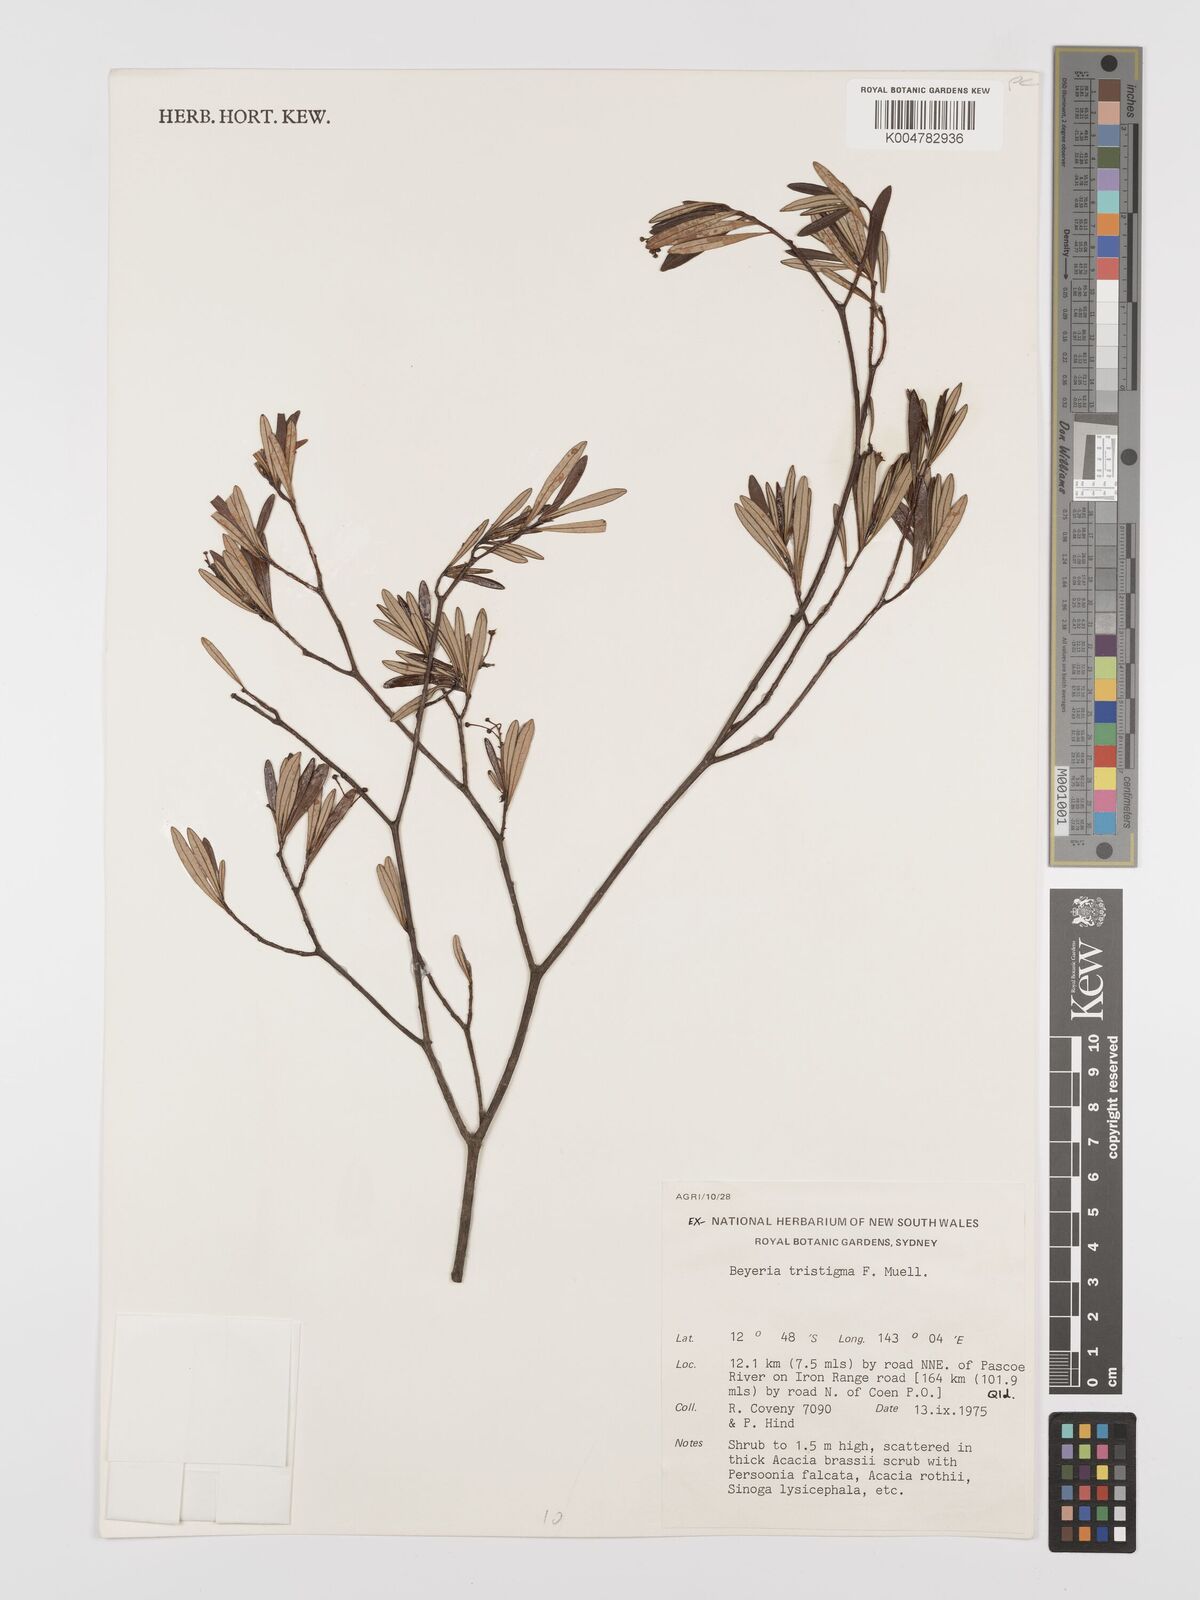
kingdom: Plantae
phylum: Tracheophyta
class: Magnoliopsida
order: Malpighiales
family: Euphorbiaceae
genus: Shonia
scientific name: Shonia tristigma
